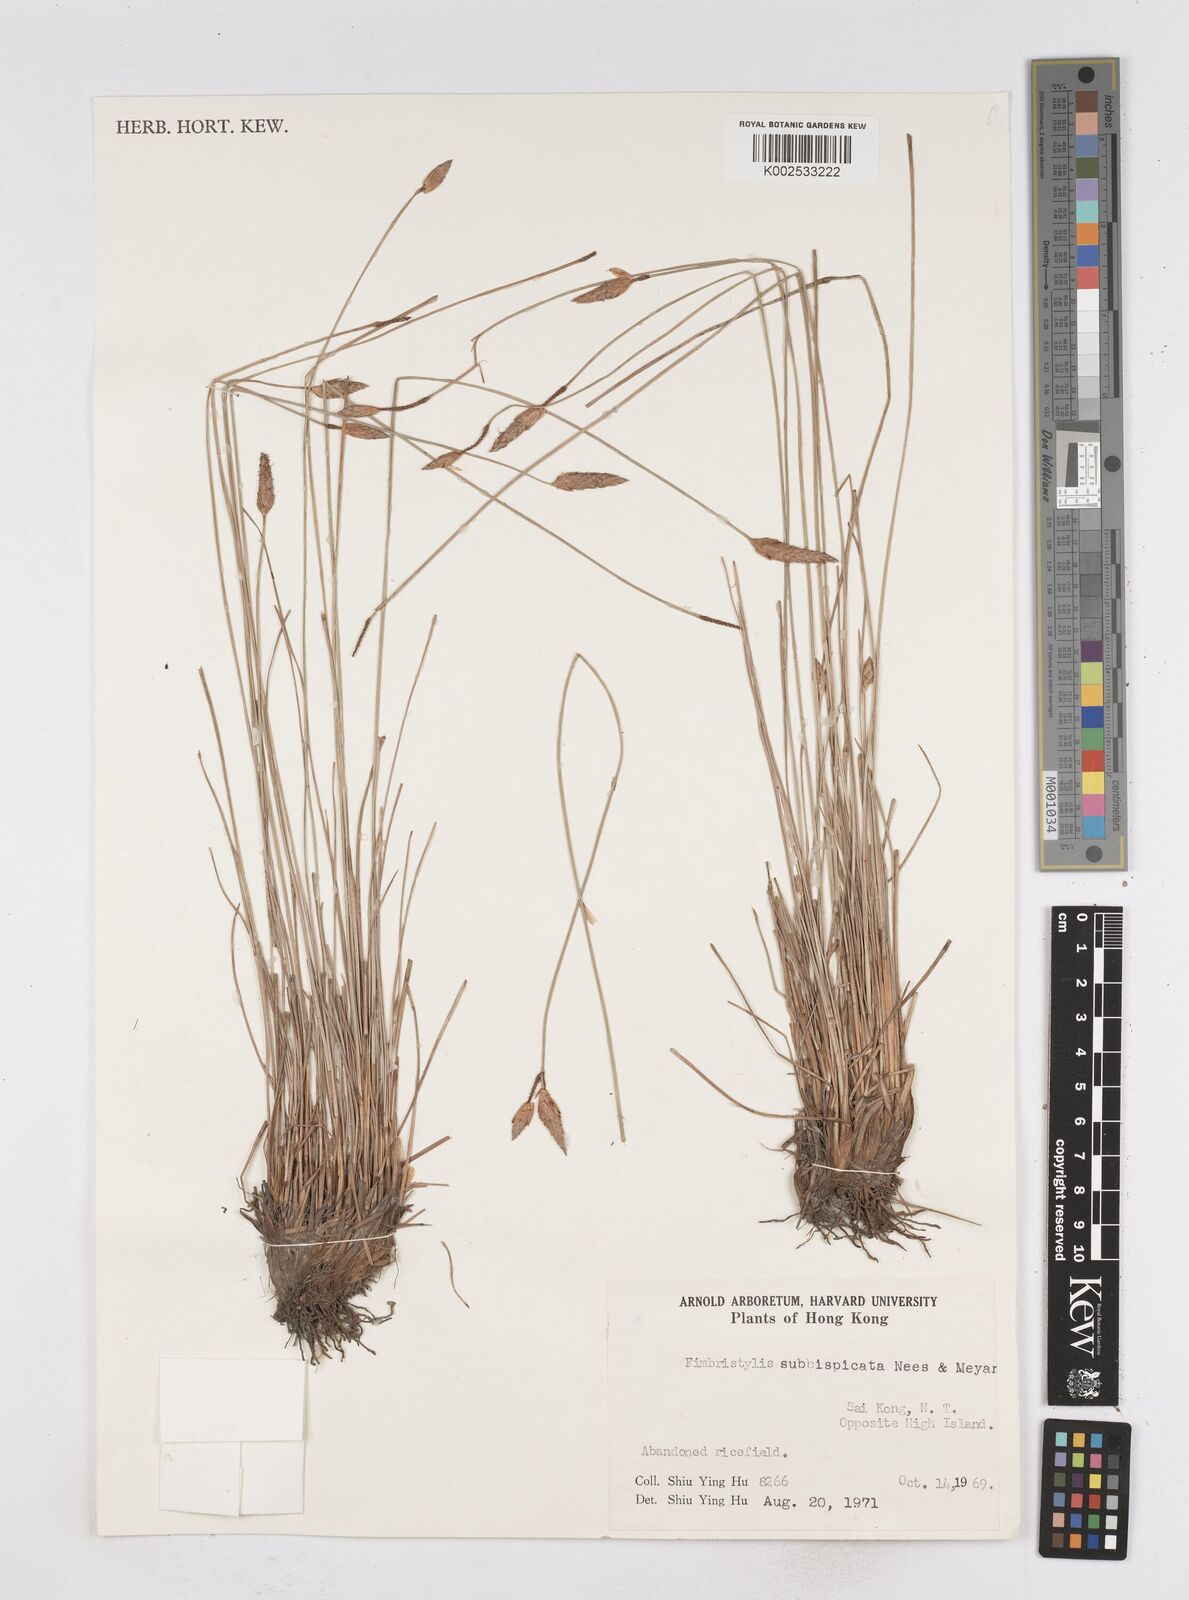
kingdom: Plantae
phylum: Tracheophyta
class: Liliopsida
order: Poales
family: Cyperaceae
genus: Fimbristylis
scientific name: Fimbristylis tristachya
